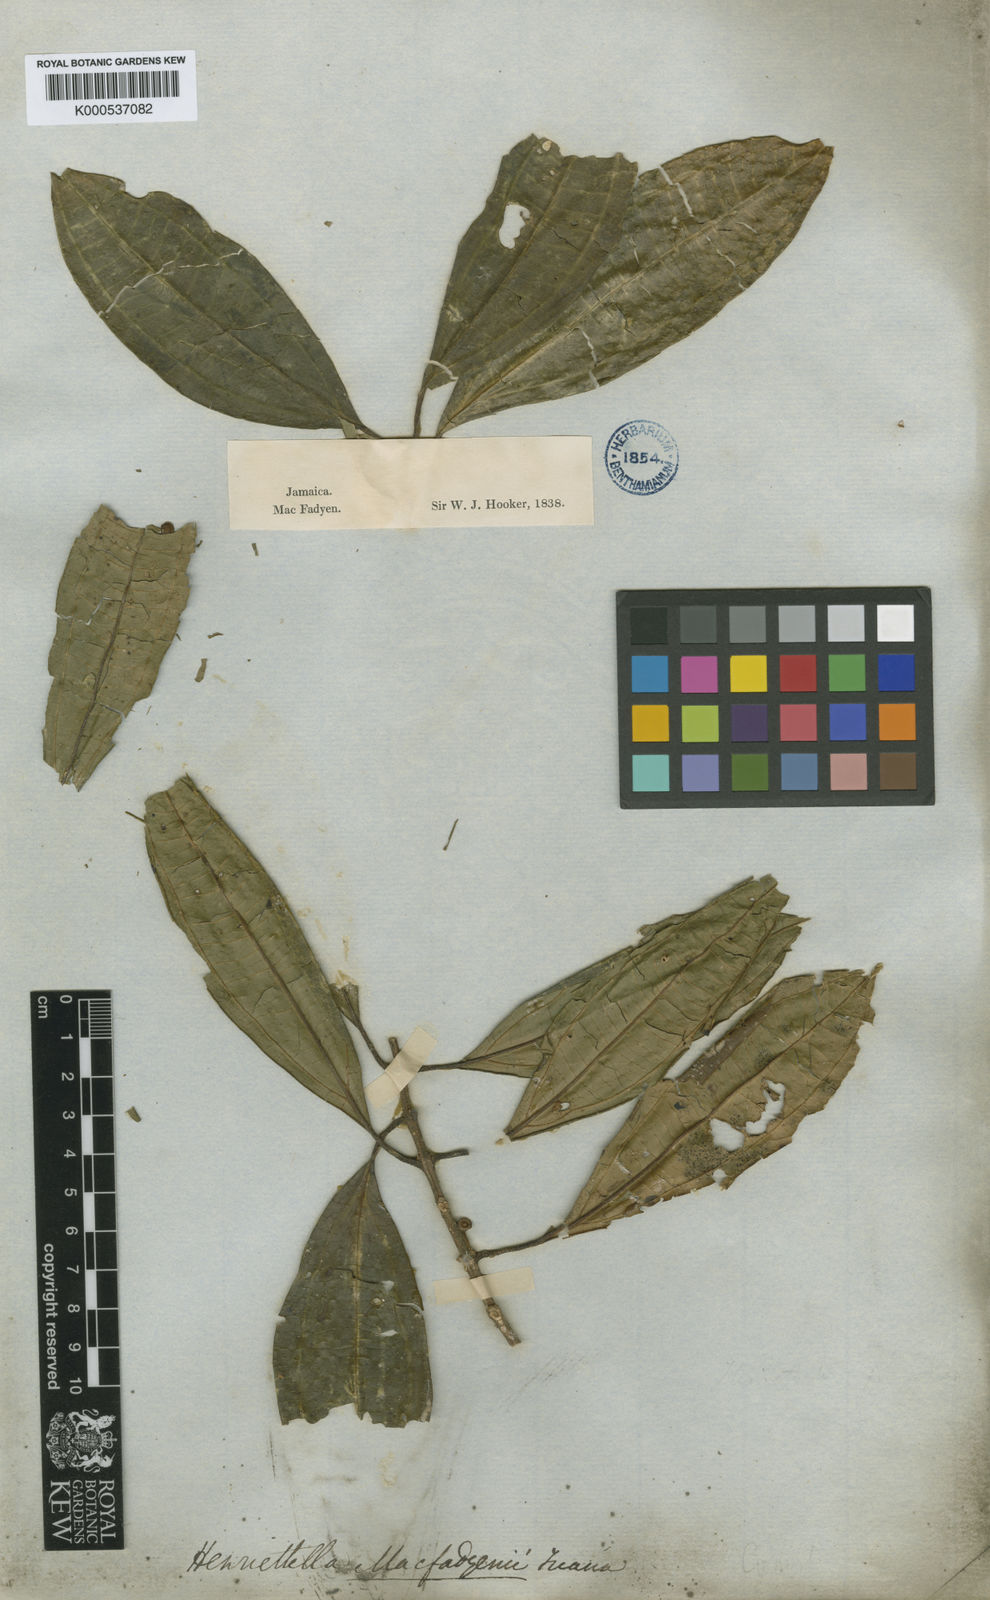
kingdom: Plantae
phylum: Tracheophyta
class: Magnoliopsida
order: Myrtales
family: Melastomataceae
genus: Henriettea
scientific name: Henriettea macfadyenii
